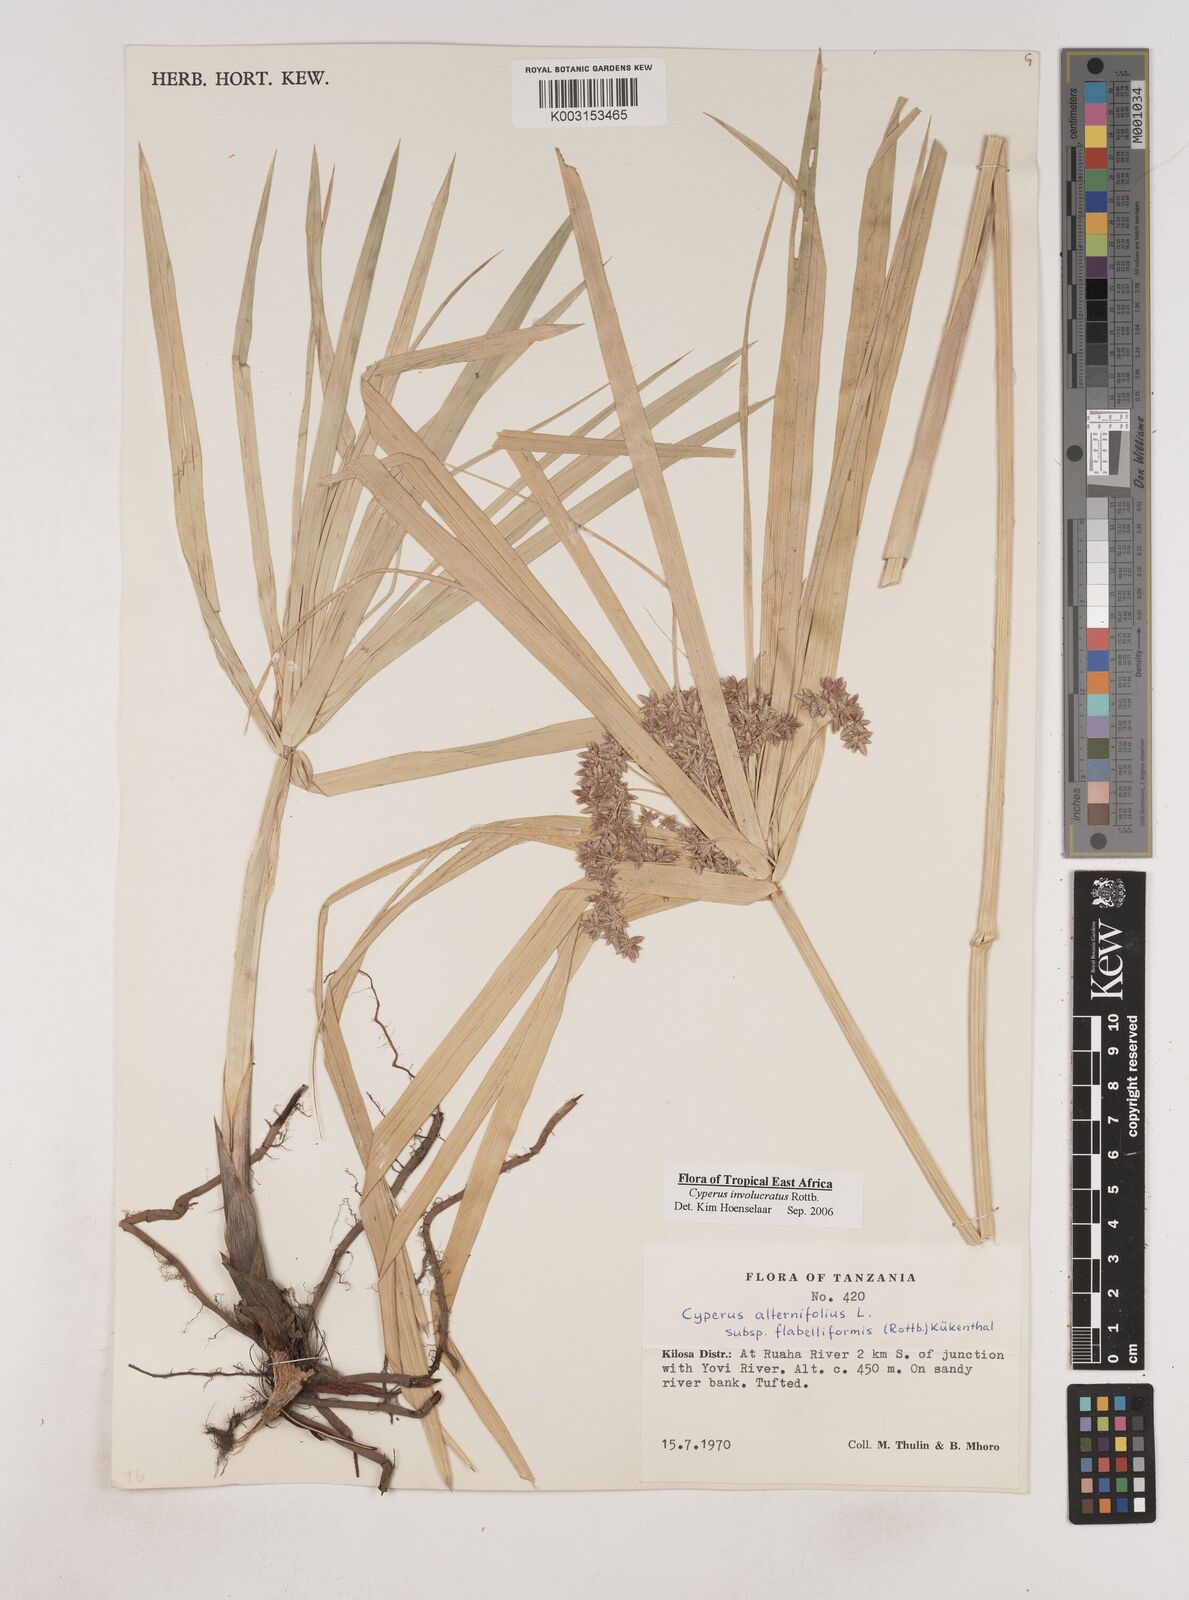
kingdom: Plantae
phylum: Tracheophyta
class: Liliopsida
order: Poales
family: Cyperaceae
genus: Cyperus
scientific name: Cyperus alternifolius
